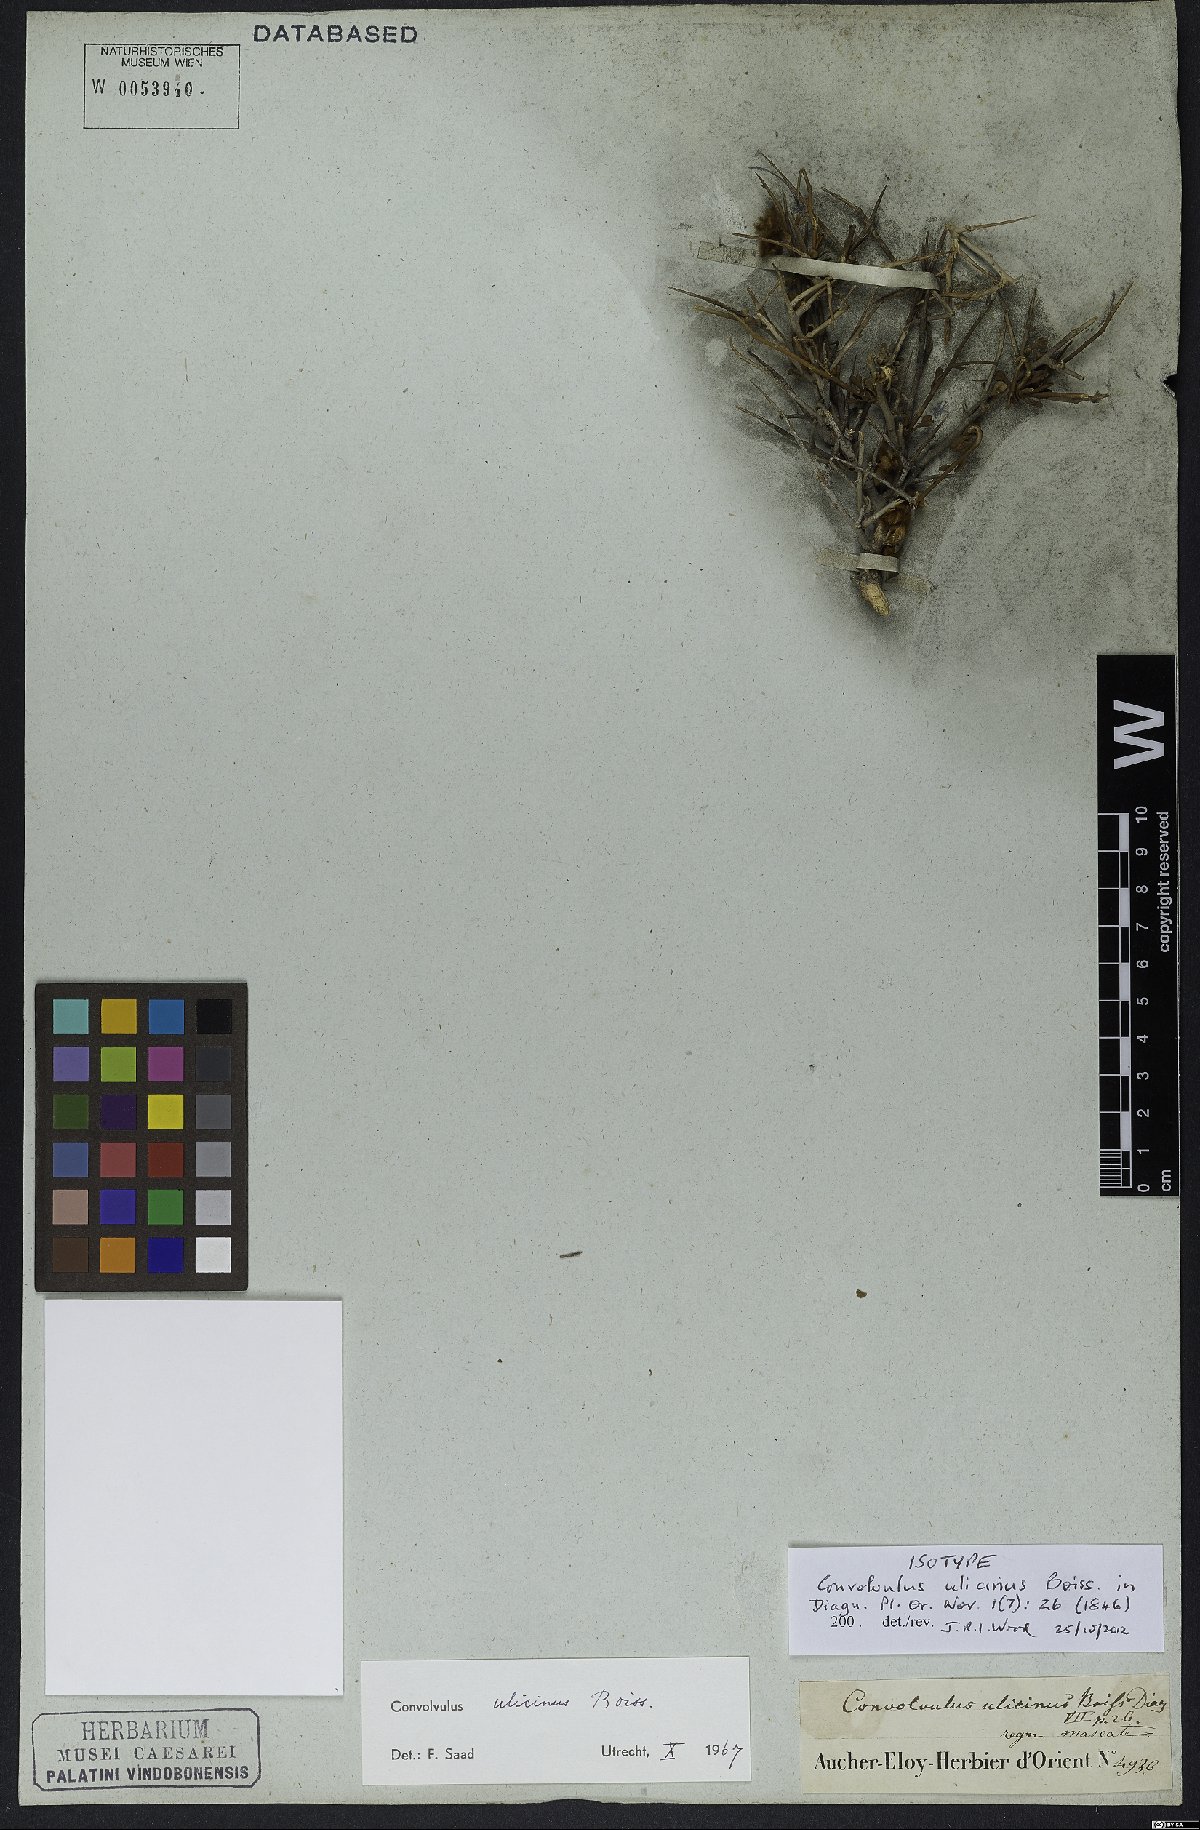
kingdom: Plantae
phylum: Tracheophyta
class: Magnoliopsida
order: Solanales
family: Convolvulaceae
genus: Convolvulus
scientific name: Convolvulus ulicinus
